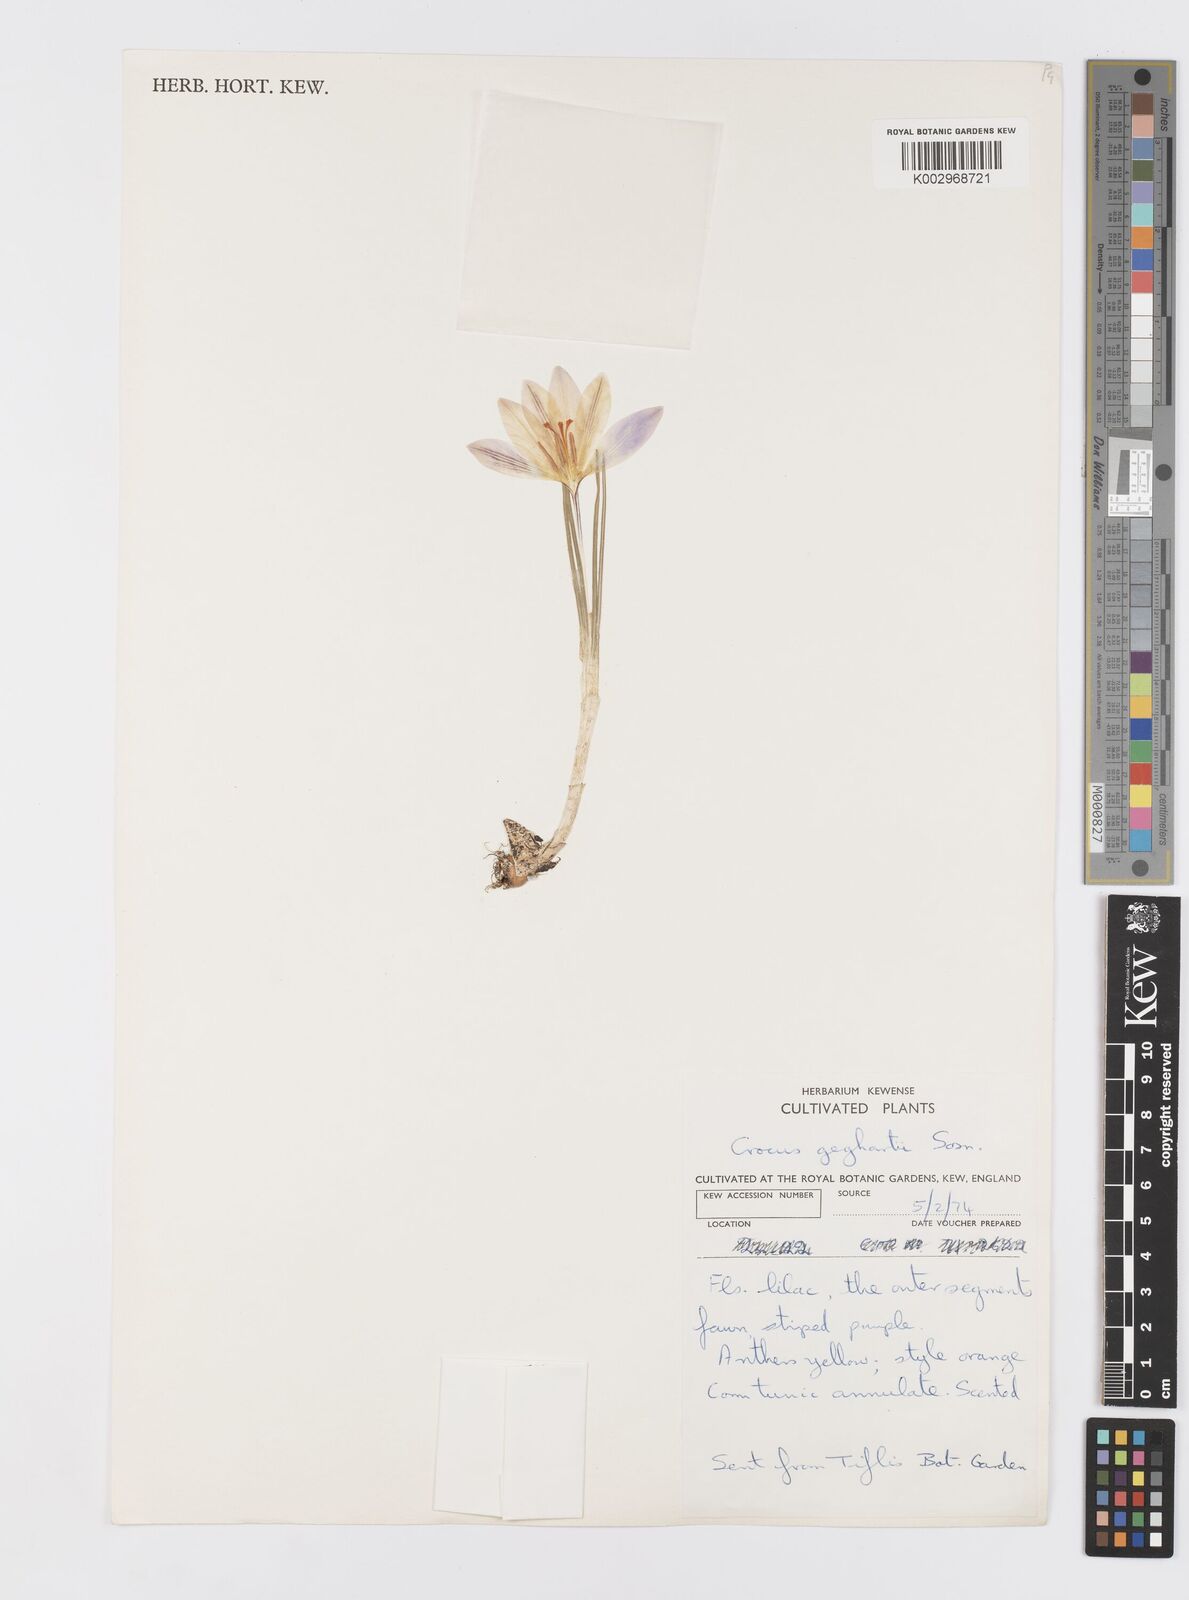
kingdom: Plantae
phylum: Tracheophyta
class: Liliopsida
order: Asparagales
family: Iridaceae
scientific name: Iridaceae
